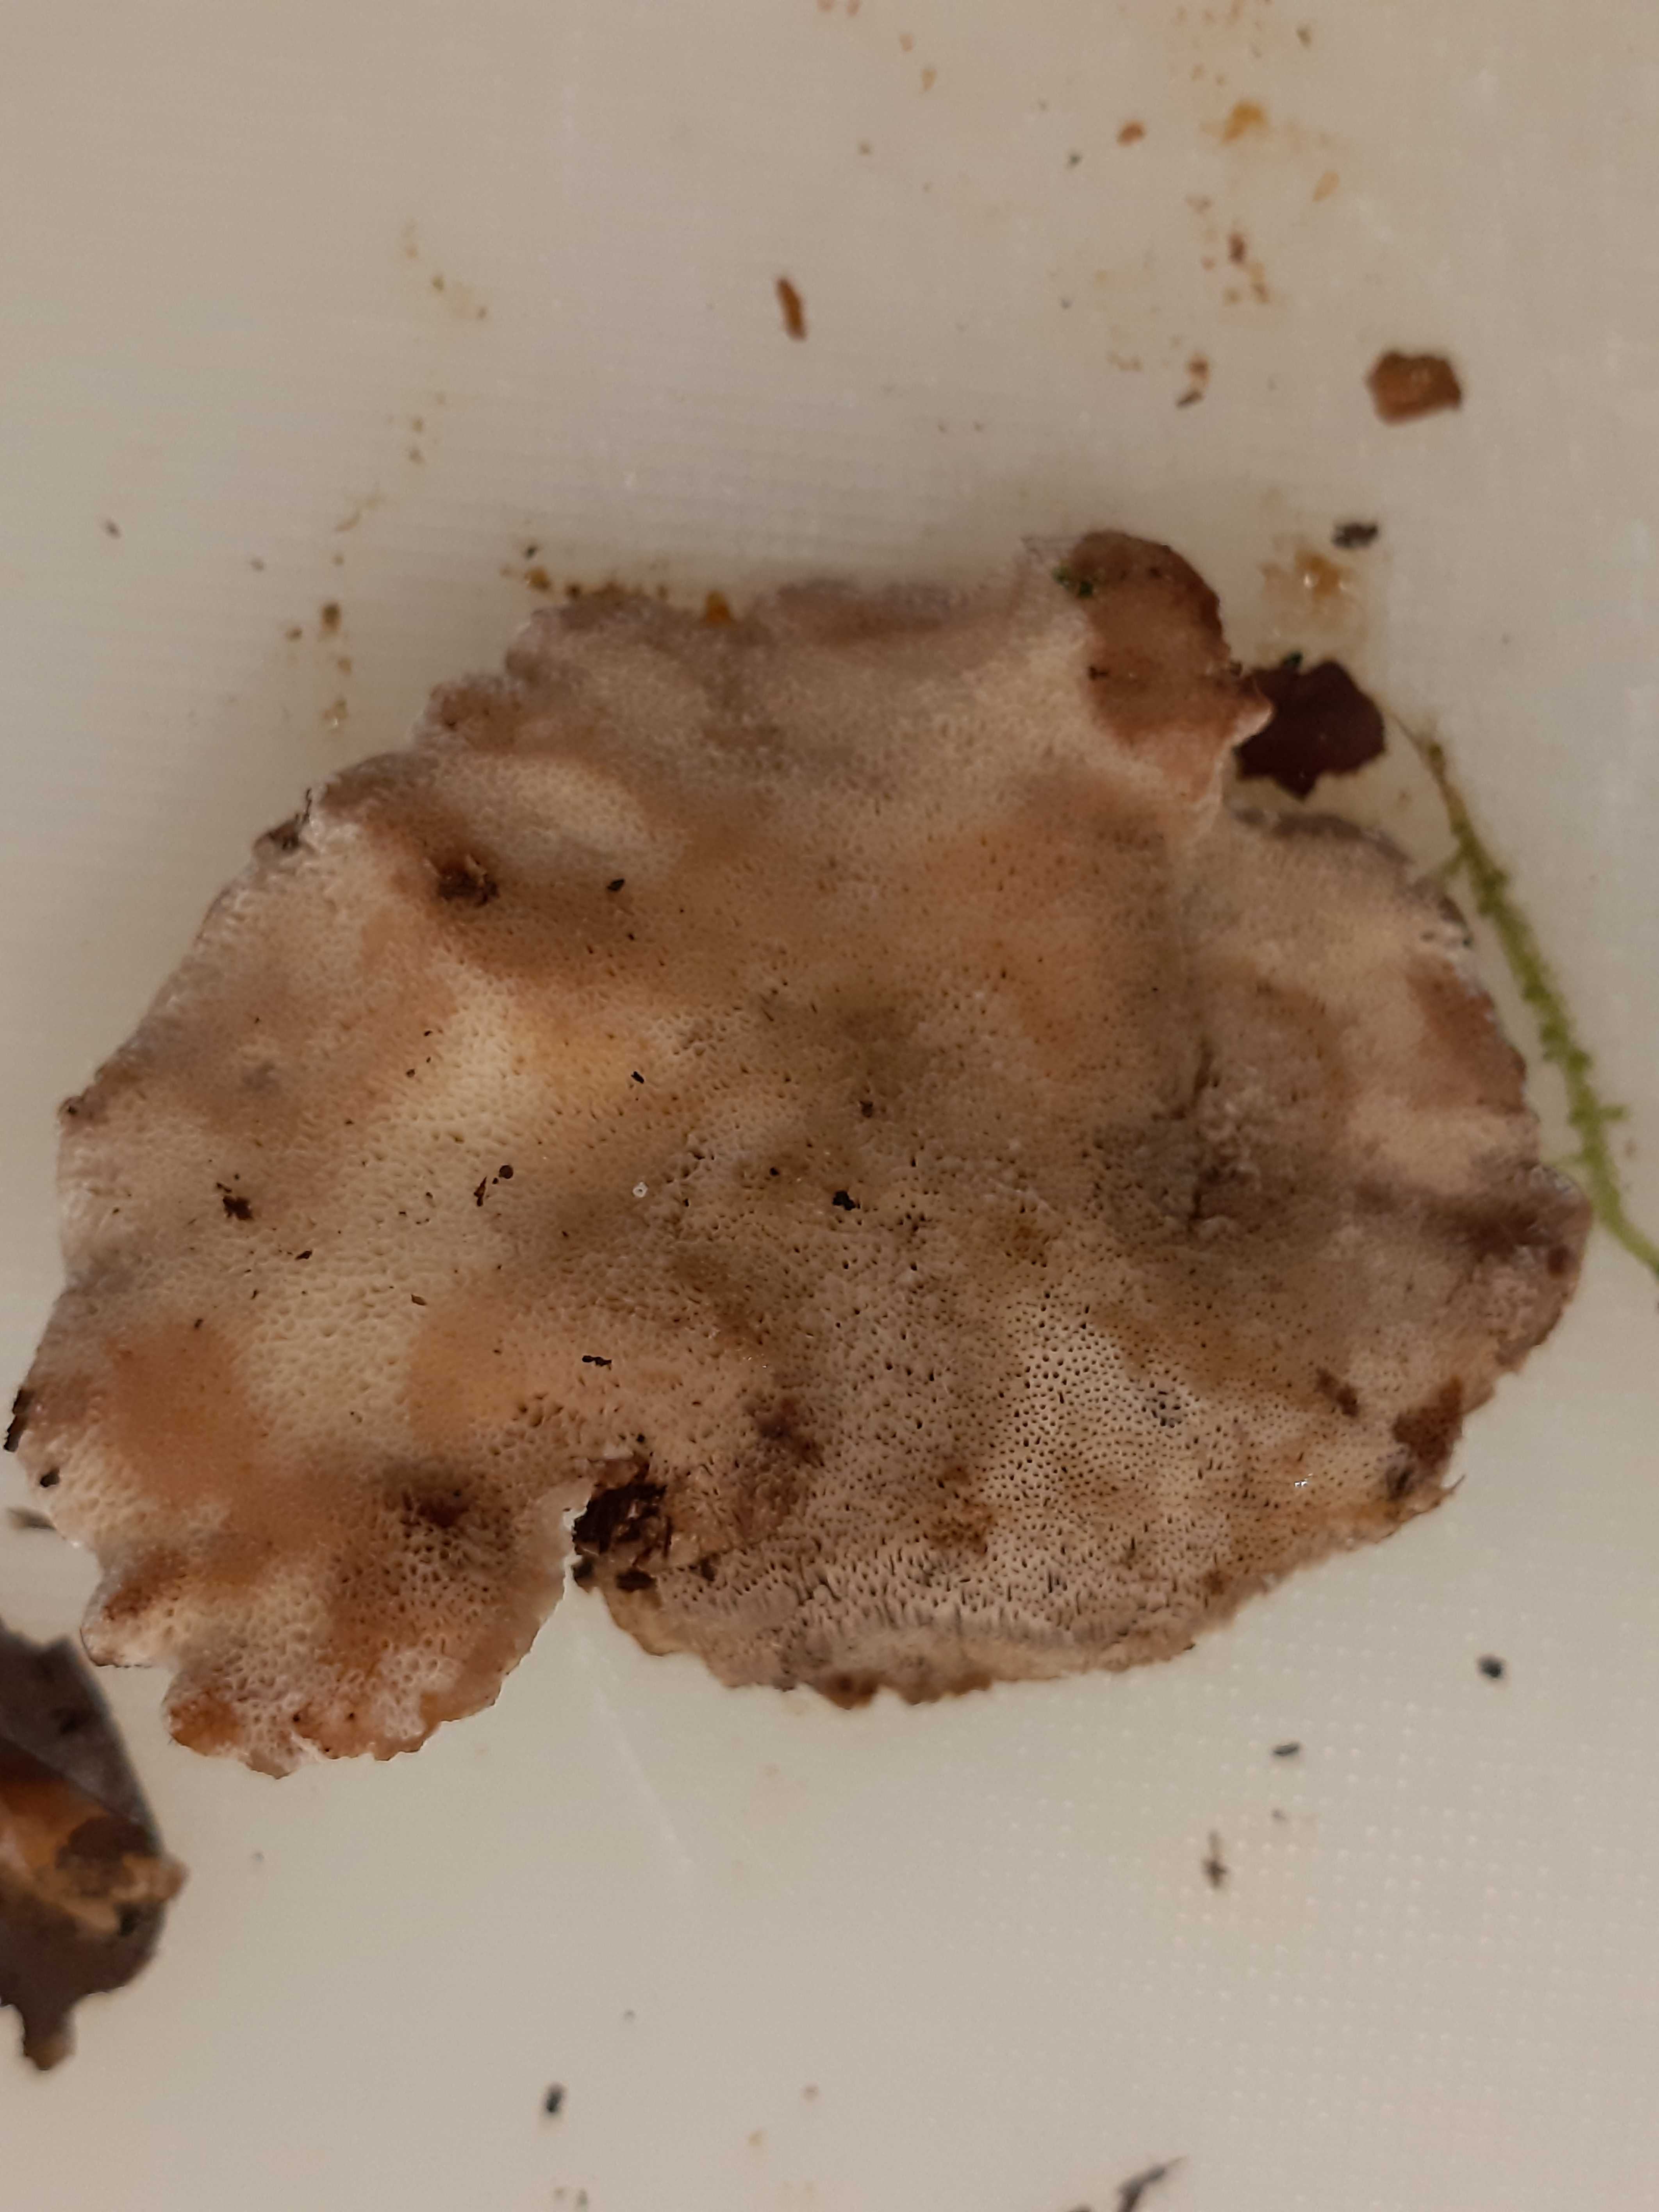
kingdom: Fungi
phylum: Basidiomycota
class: Agaricomycetes
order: Polyporales
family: Ischnodermataceae
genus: Ischnoderma
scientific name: Ischnoderma benzoinum
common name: gran-tjæreporesvamp
